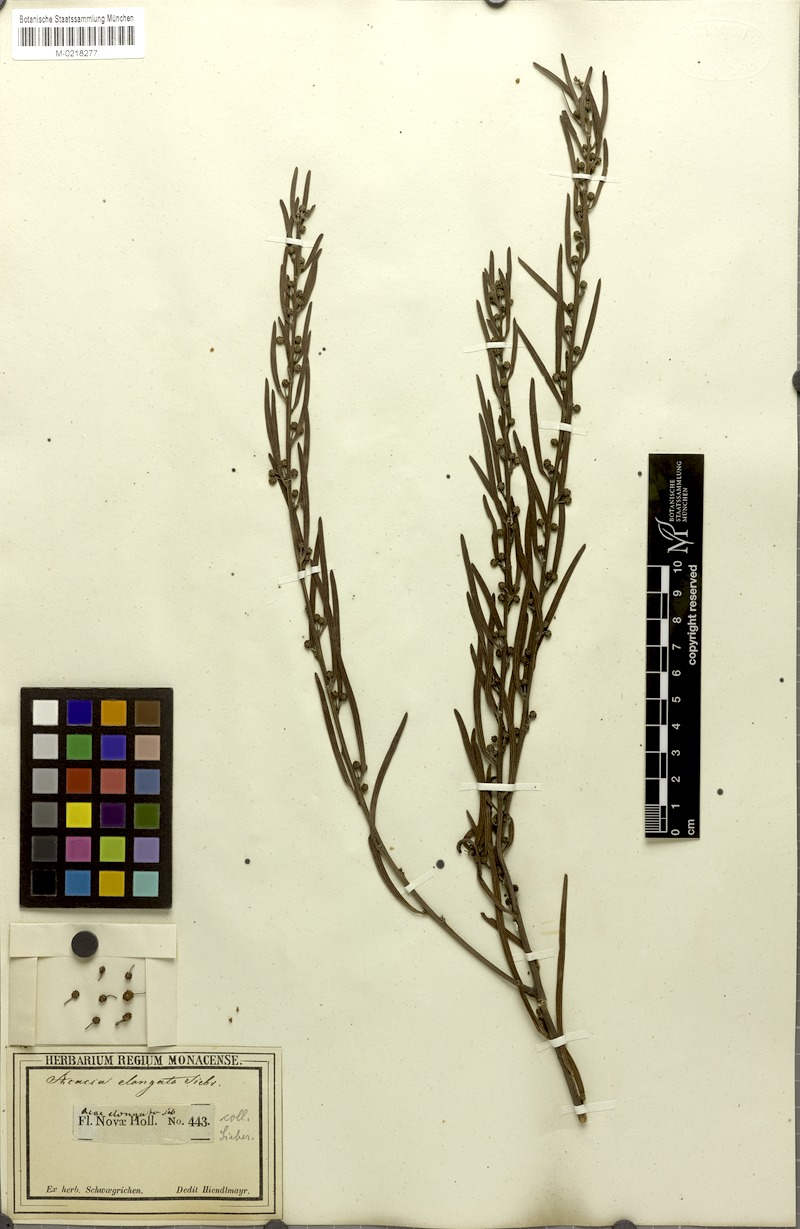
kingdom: Plantae
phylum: Tracheophyta
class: Magnoliopsida
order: Fabales
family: Fabaceae
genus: Acacia
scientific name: Acacia elongata
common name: Swamp wattle
